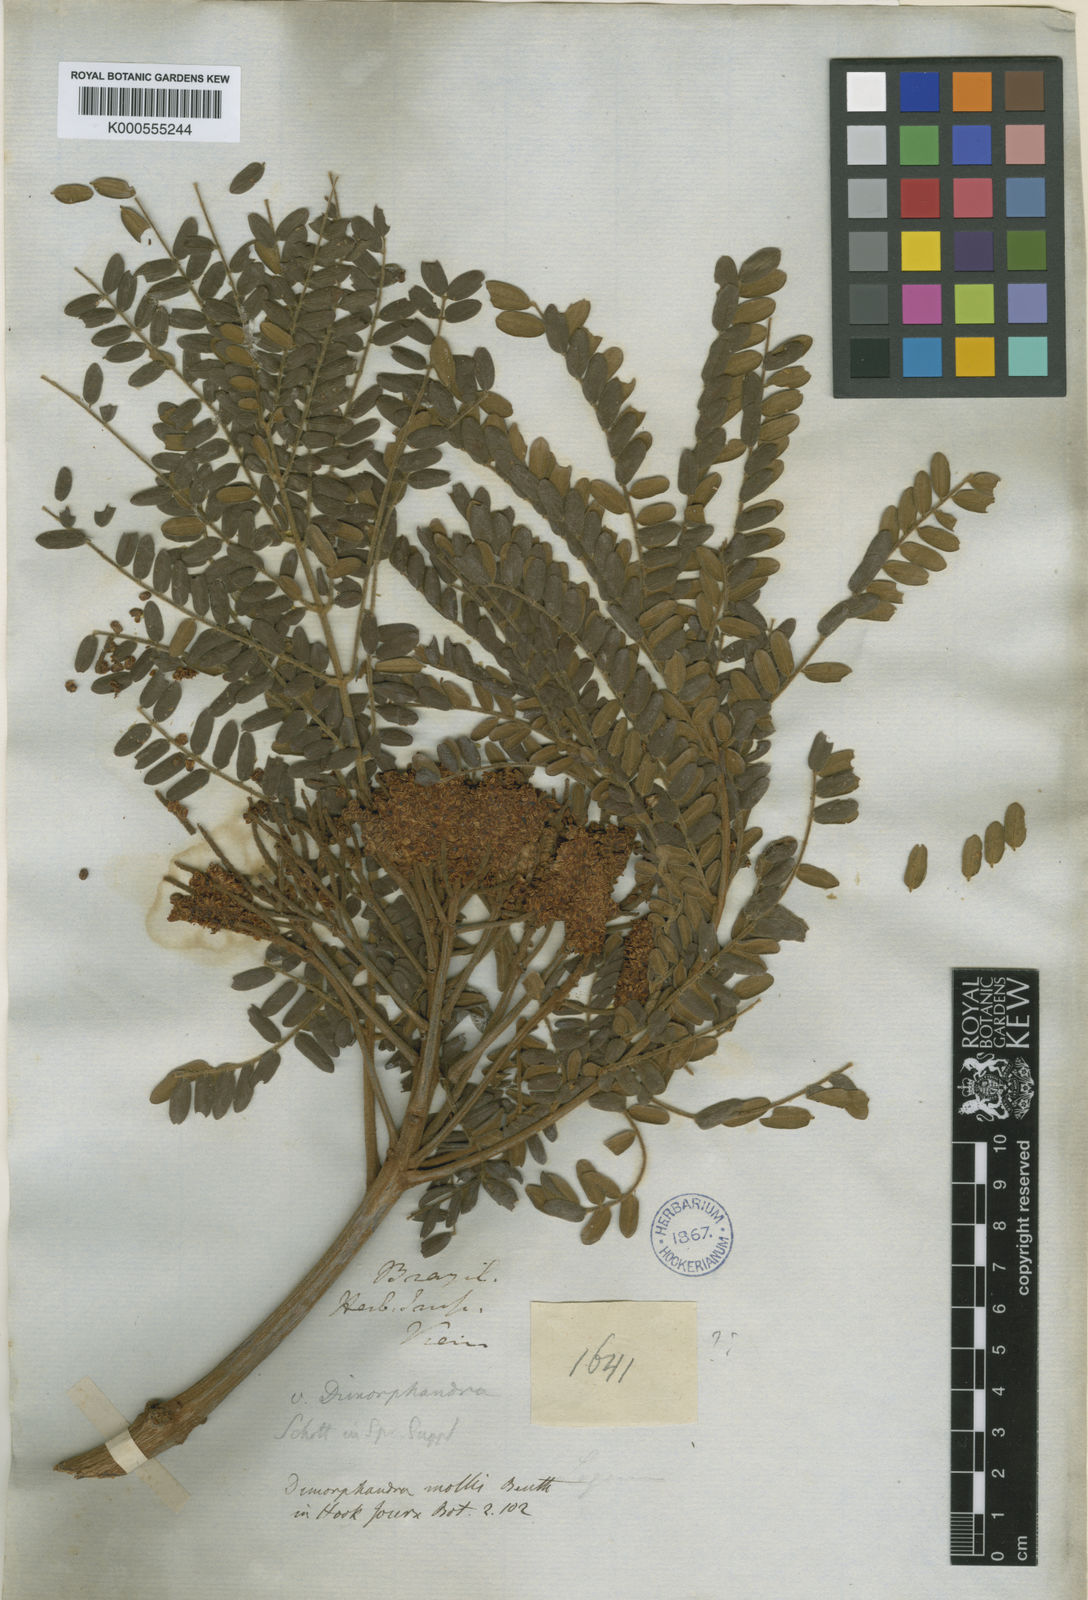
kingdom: Plantae
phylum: Tracheophyta
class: Magnoliopsida
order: Fabales
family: Fabaceae
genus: Dimorphandra
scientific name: Dimorphandra mollis
